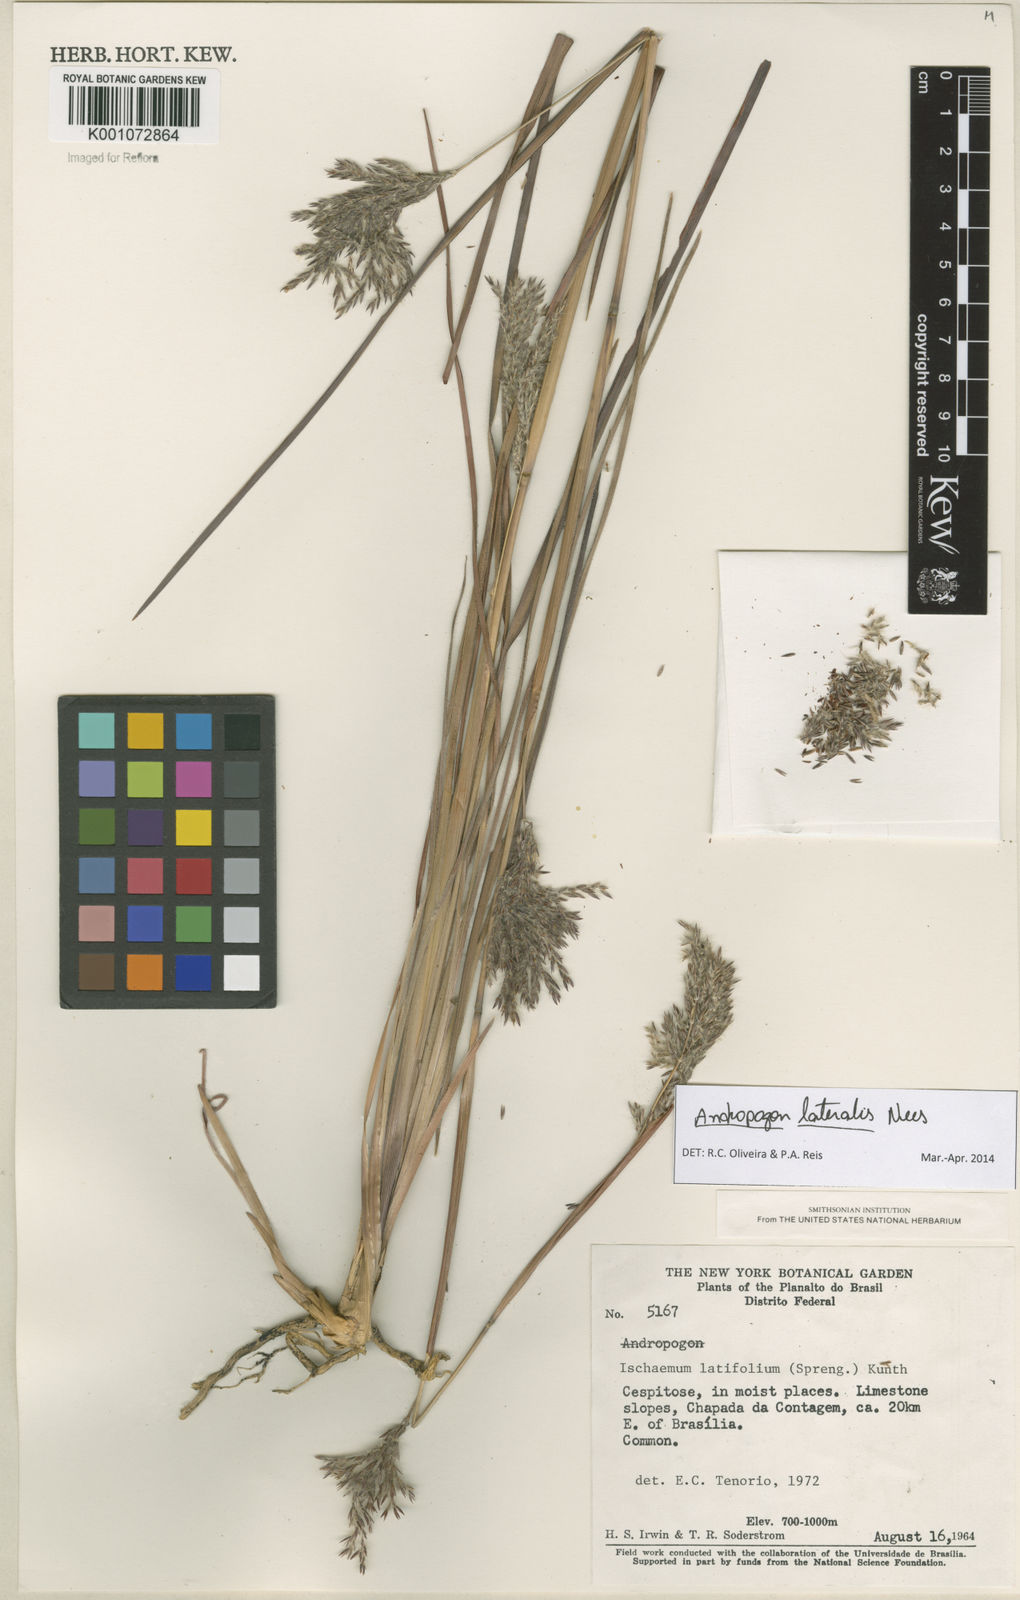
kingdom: Plantae
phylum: Tracheophyta
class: Liliopsida
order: Poales
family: Poaceae
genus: Andropogon
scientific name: Andropogon lateralis
